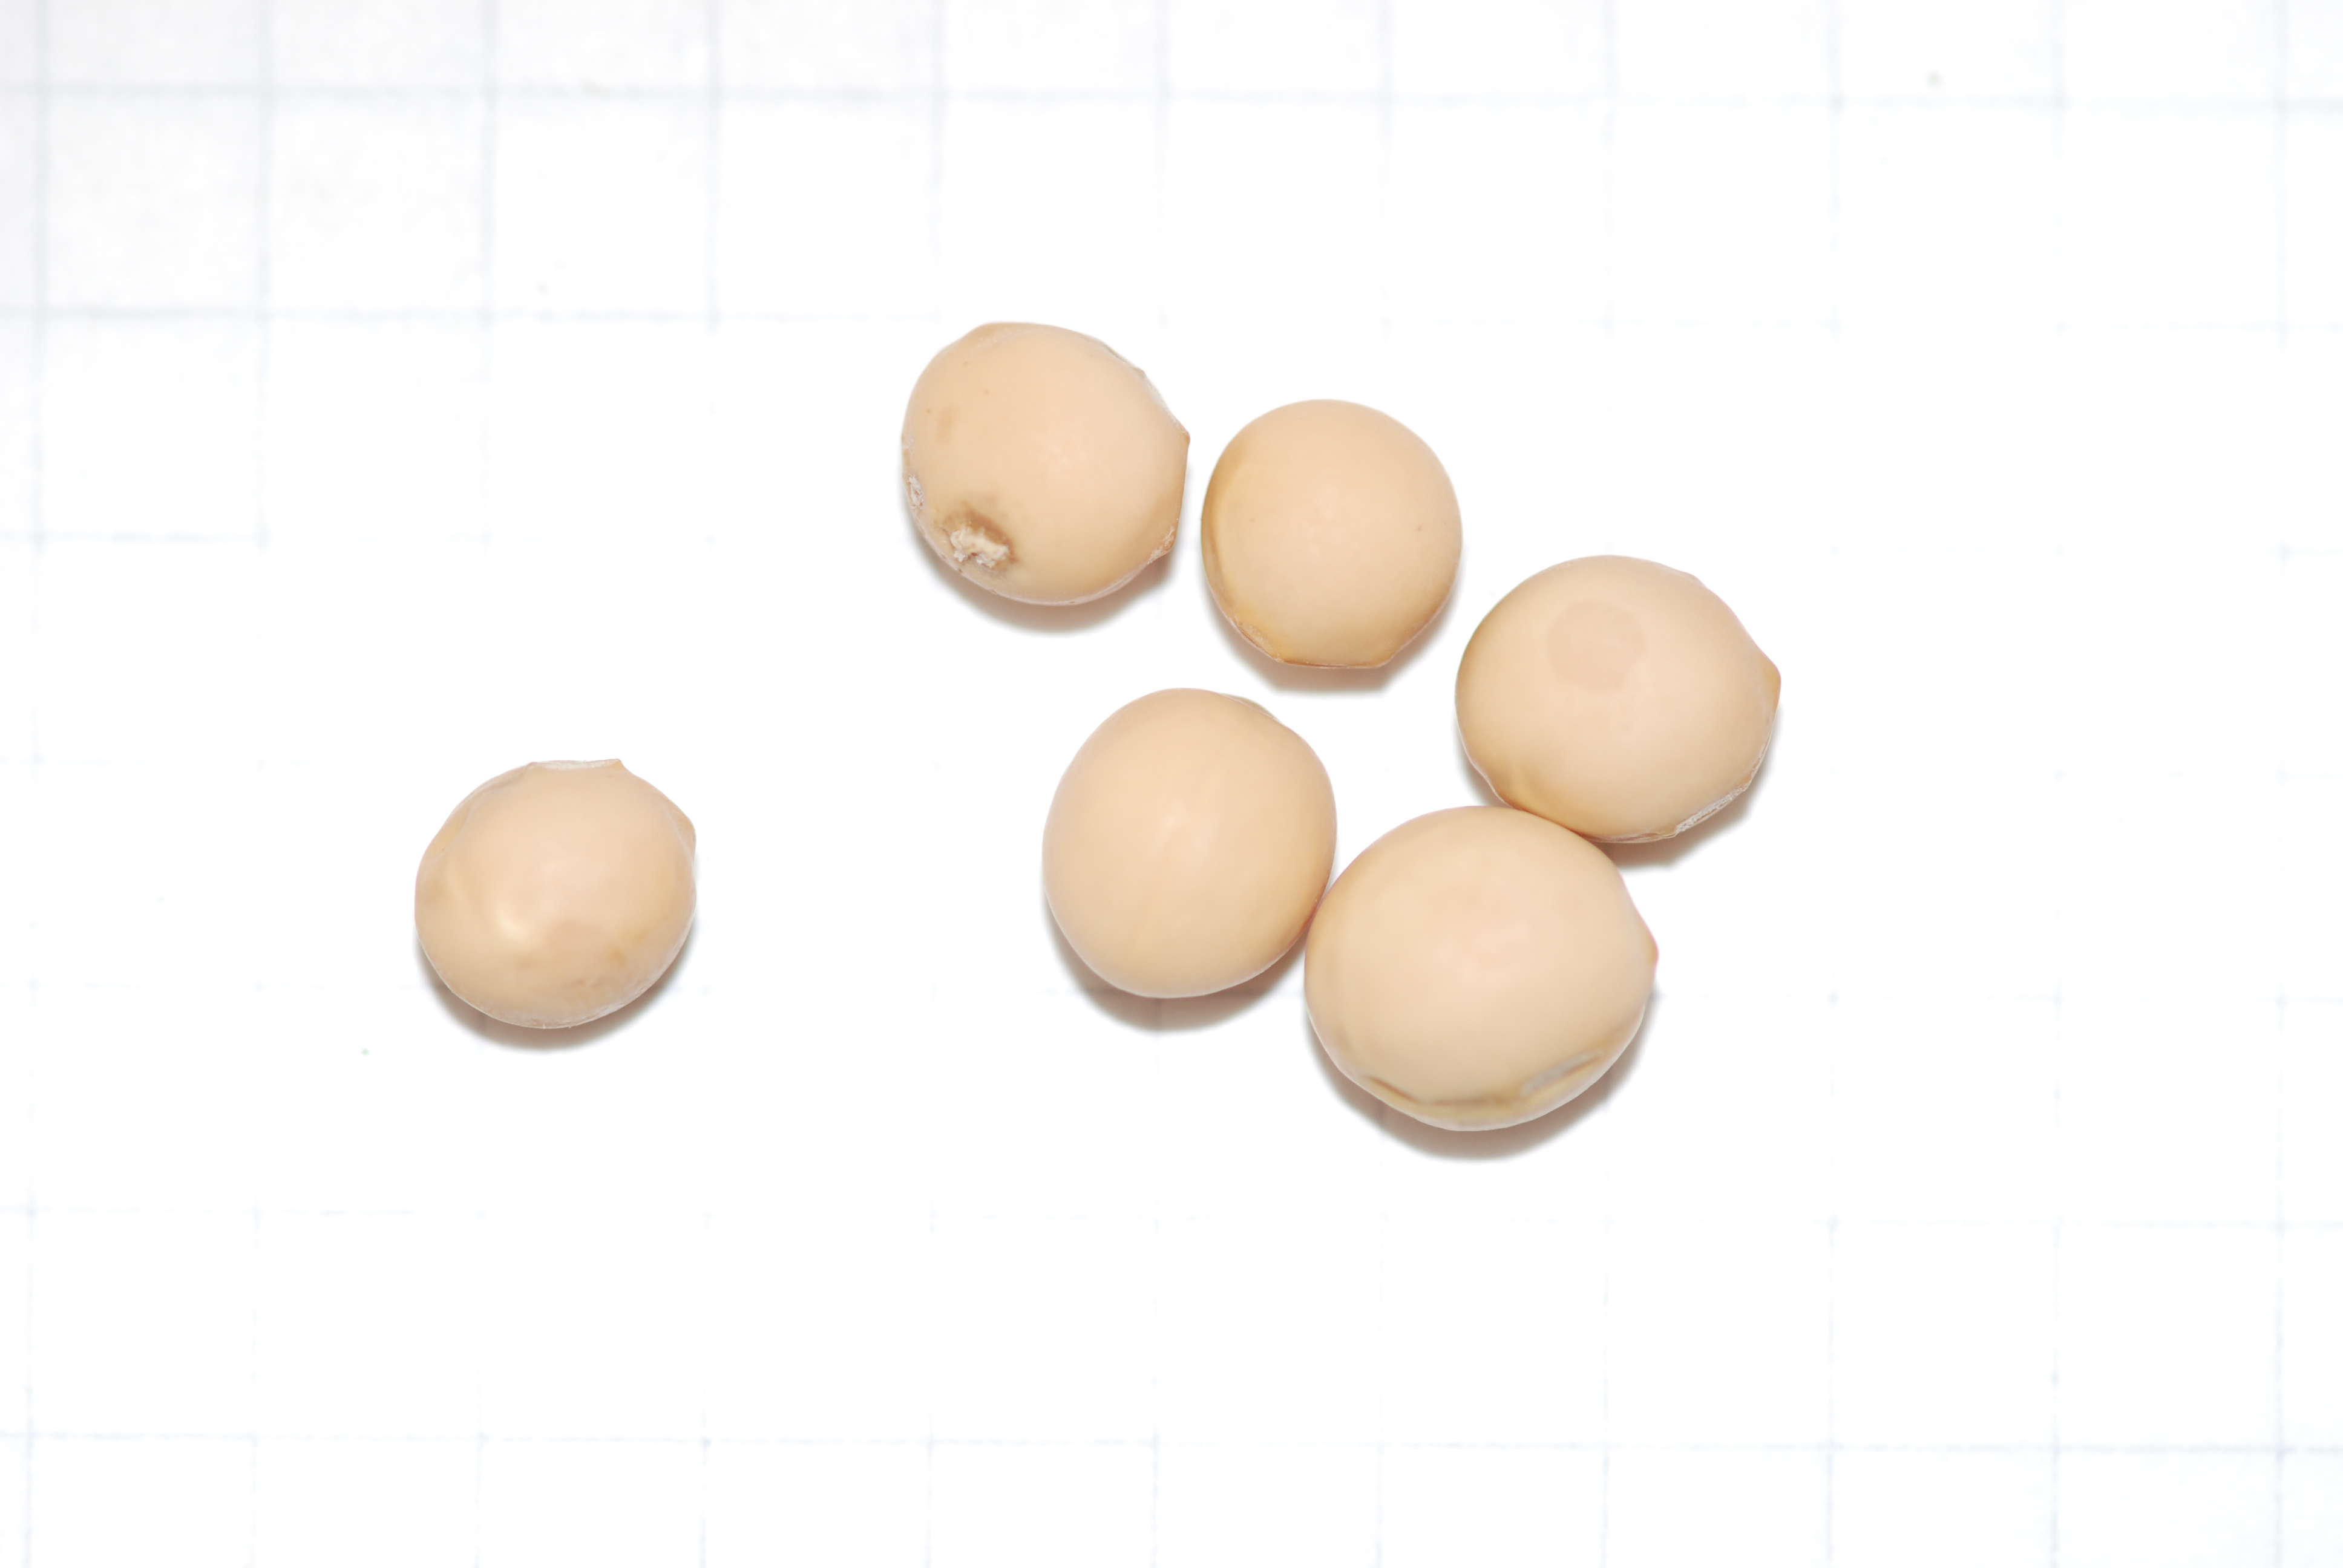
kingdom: Plantae
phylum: Tracheophyta
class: Magnoliopsida
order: Fabales
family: Fabaceae
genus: Lathyrus
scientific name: Lathyrus oleraceus
